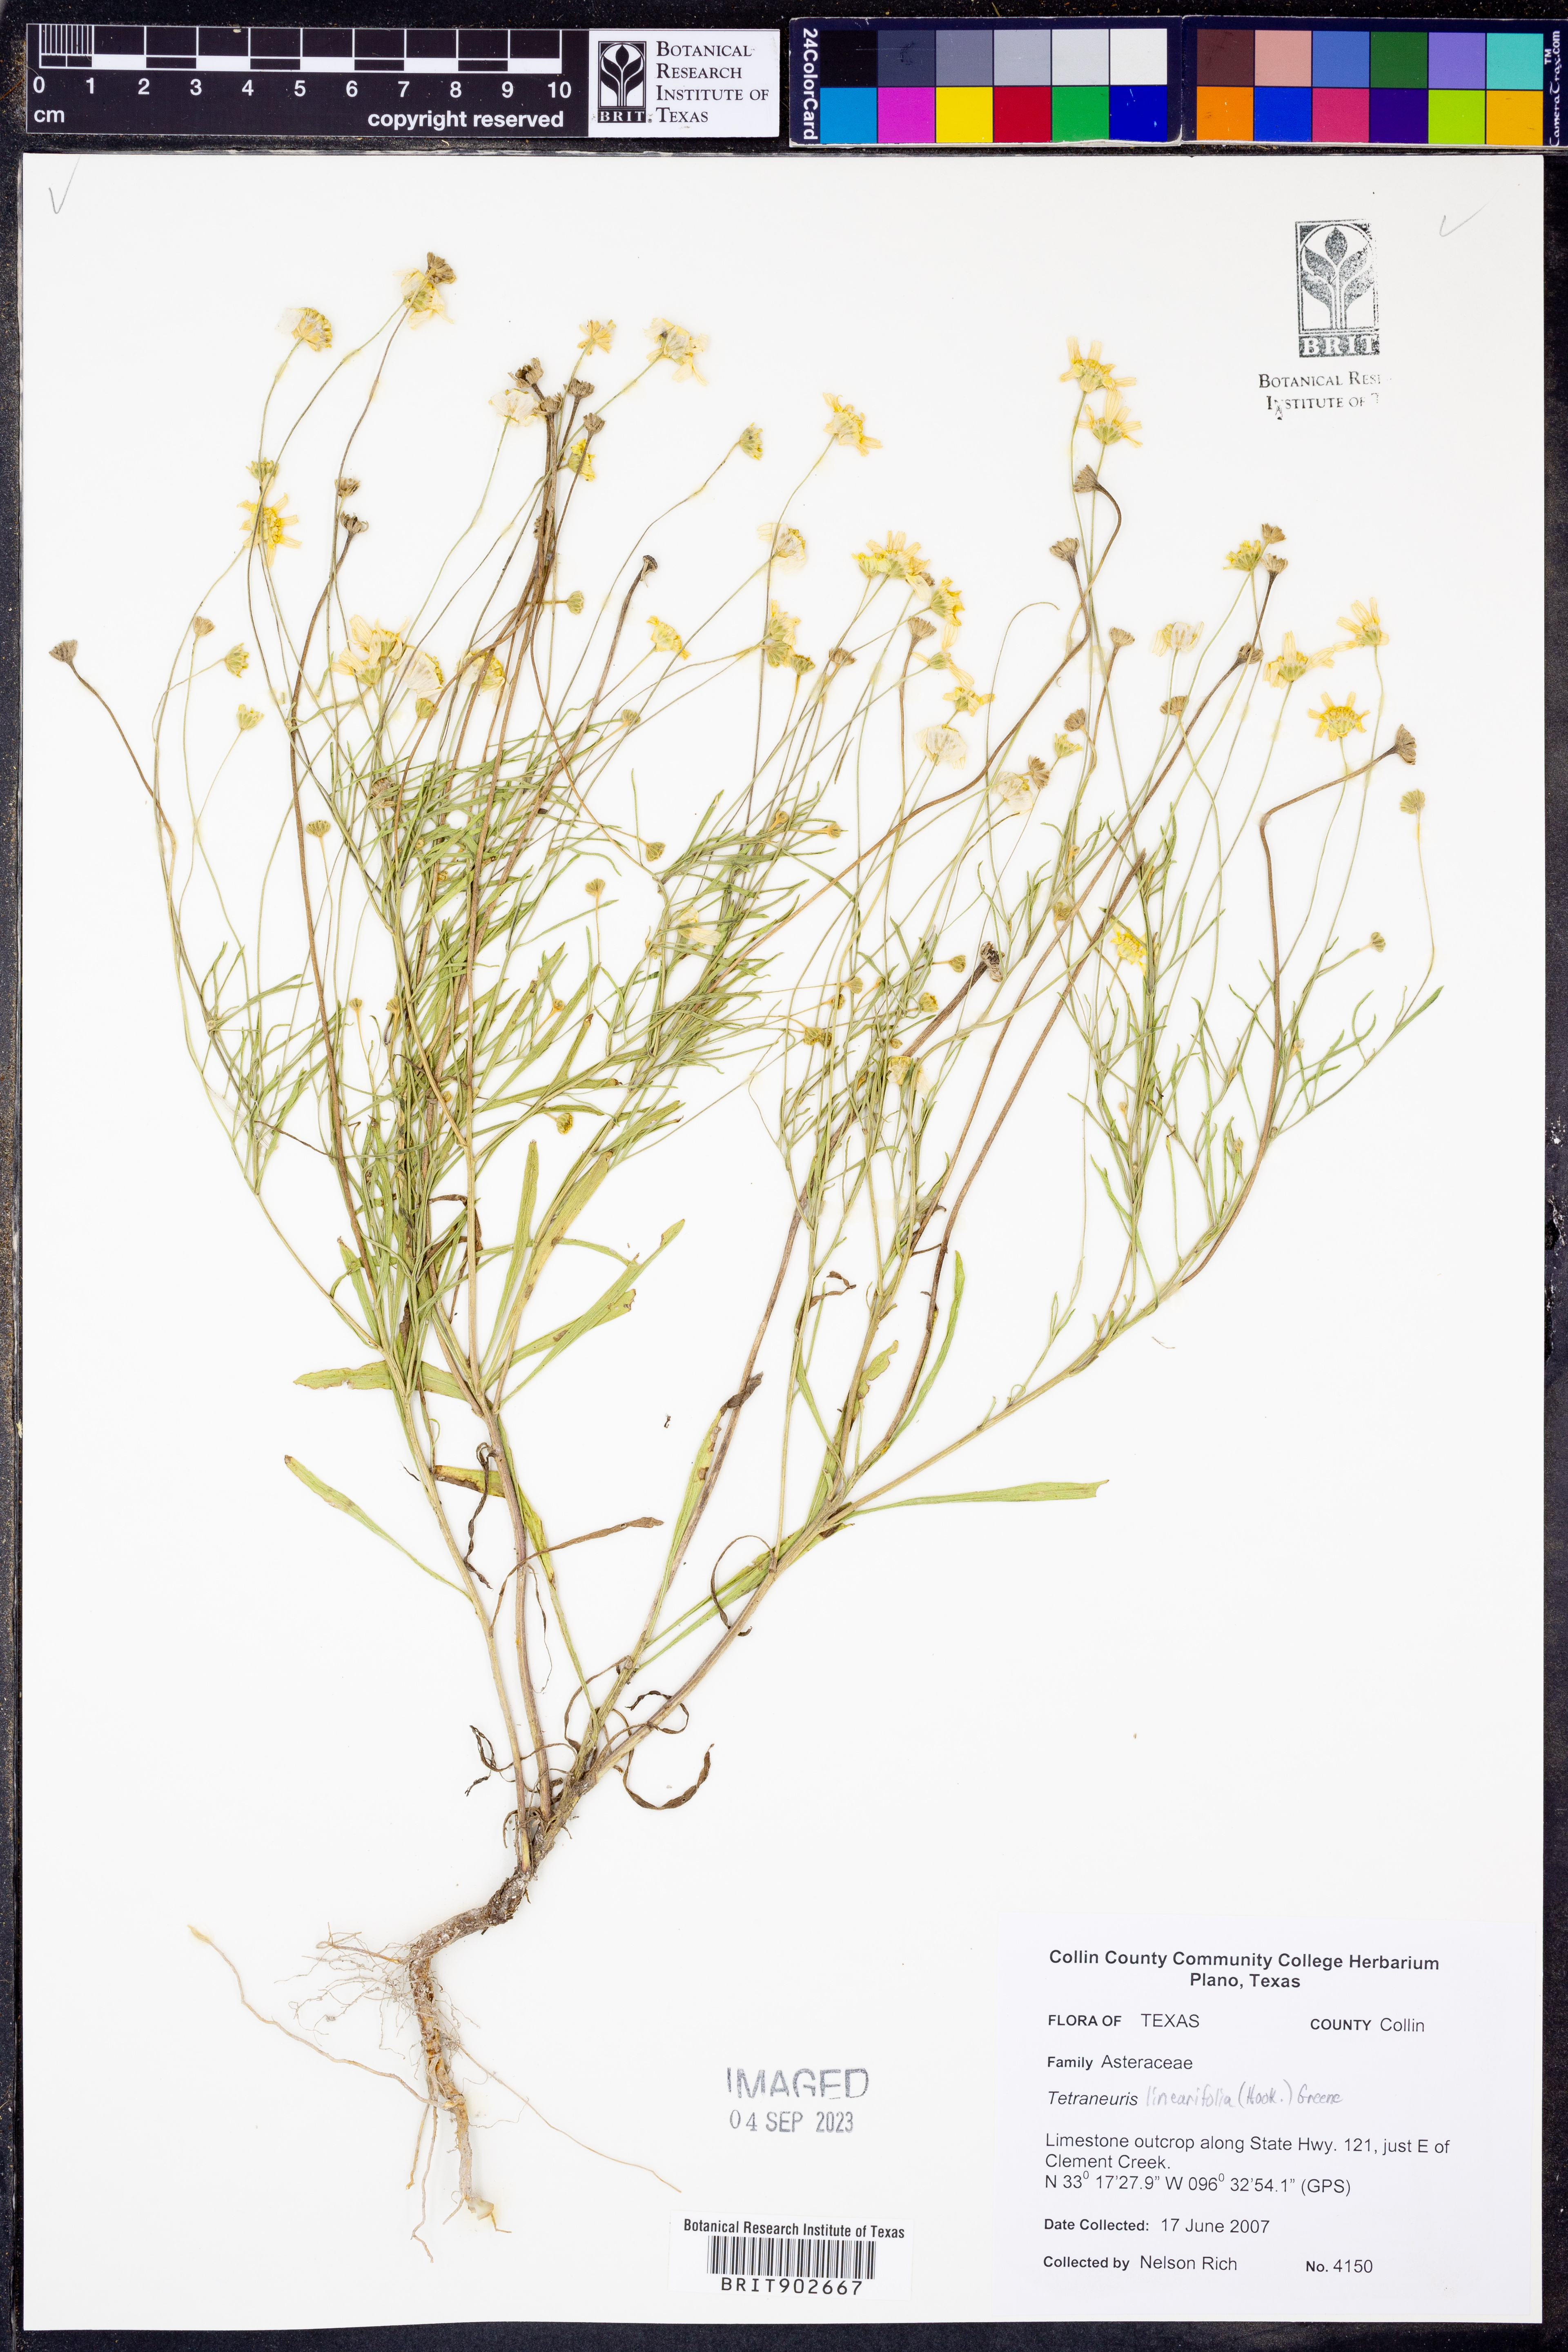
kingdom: Plantae
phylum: Tracheophyta
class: Magnoliopsida
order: Asterales
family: Asteraceae
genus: Tetraneuris
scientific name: Tetraneuris linearifolia
